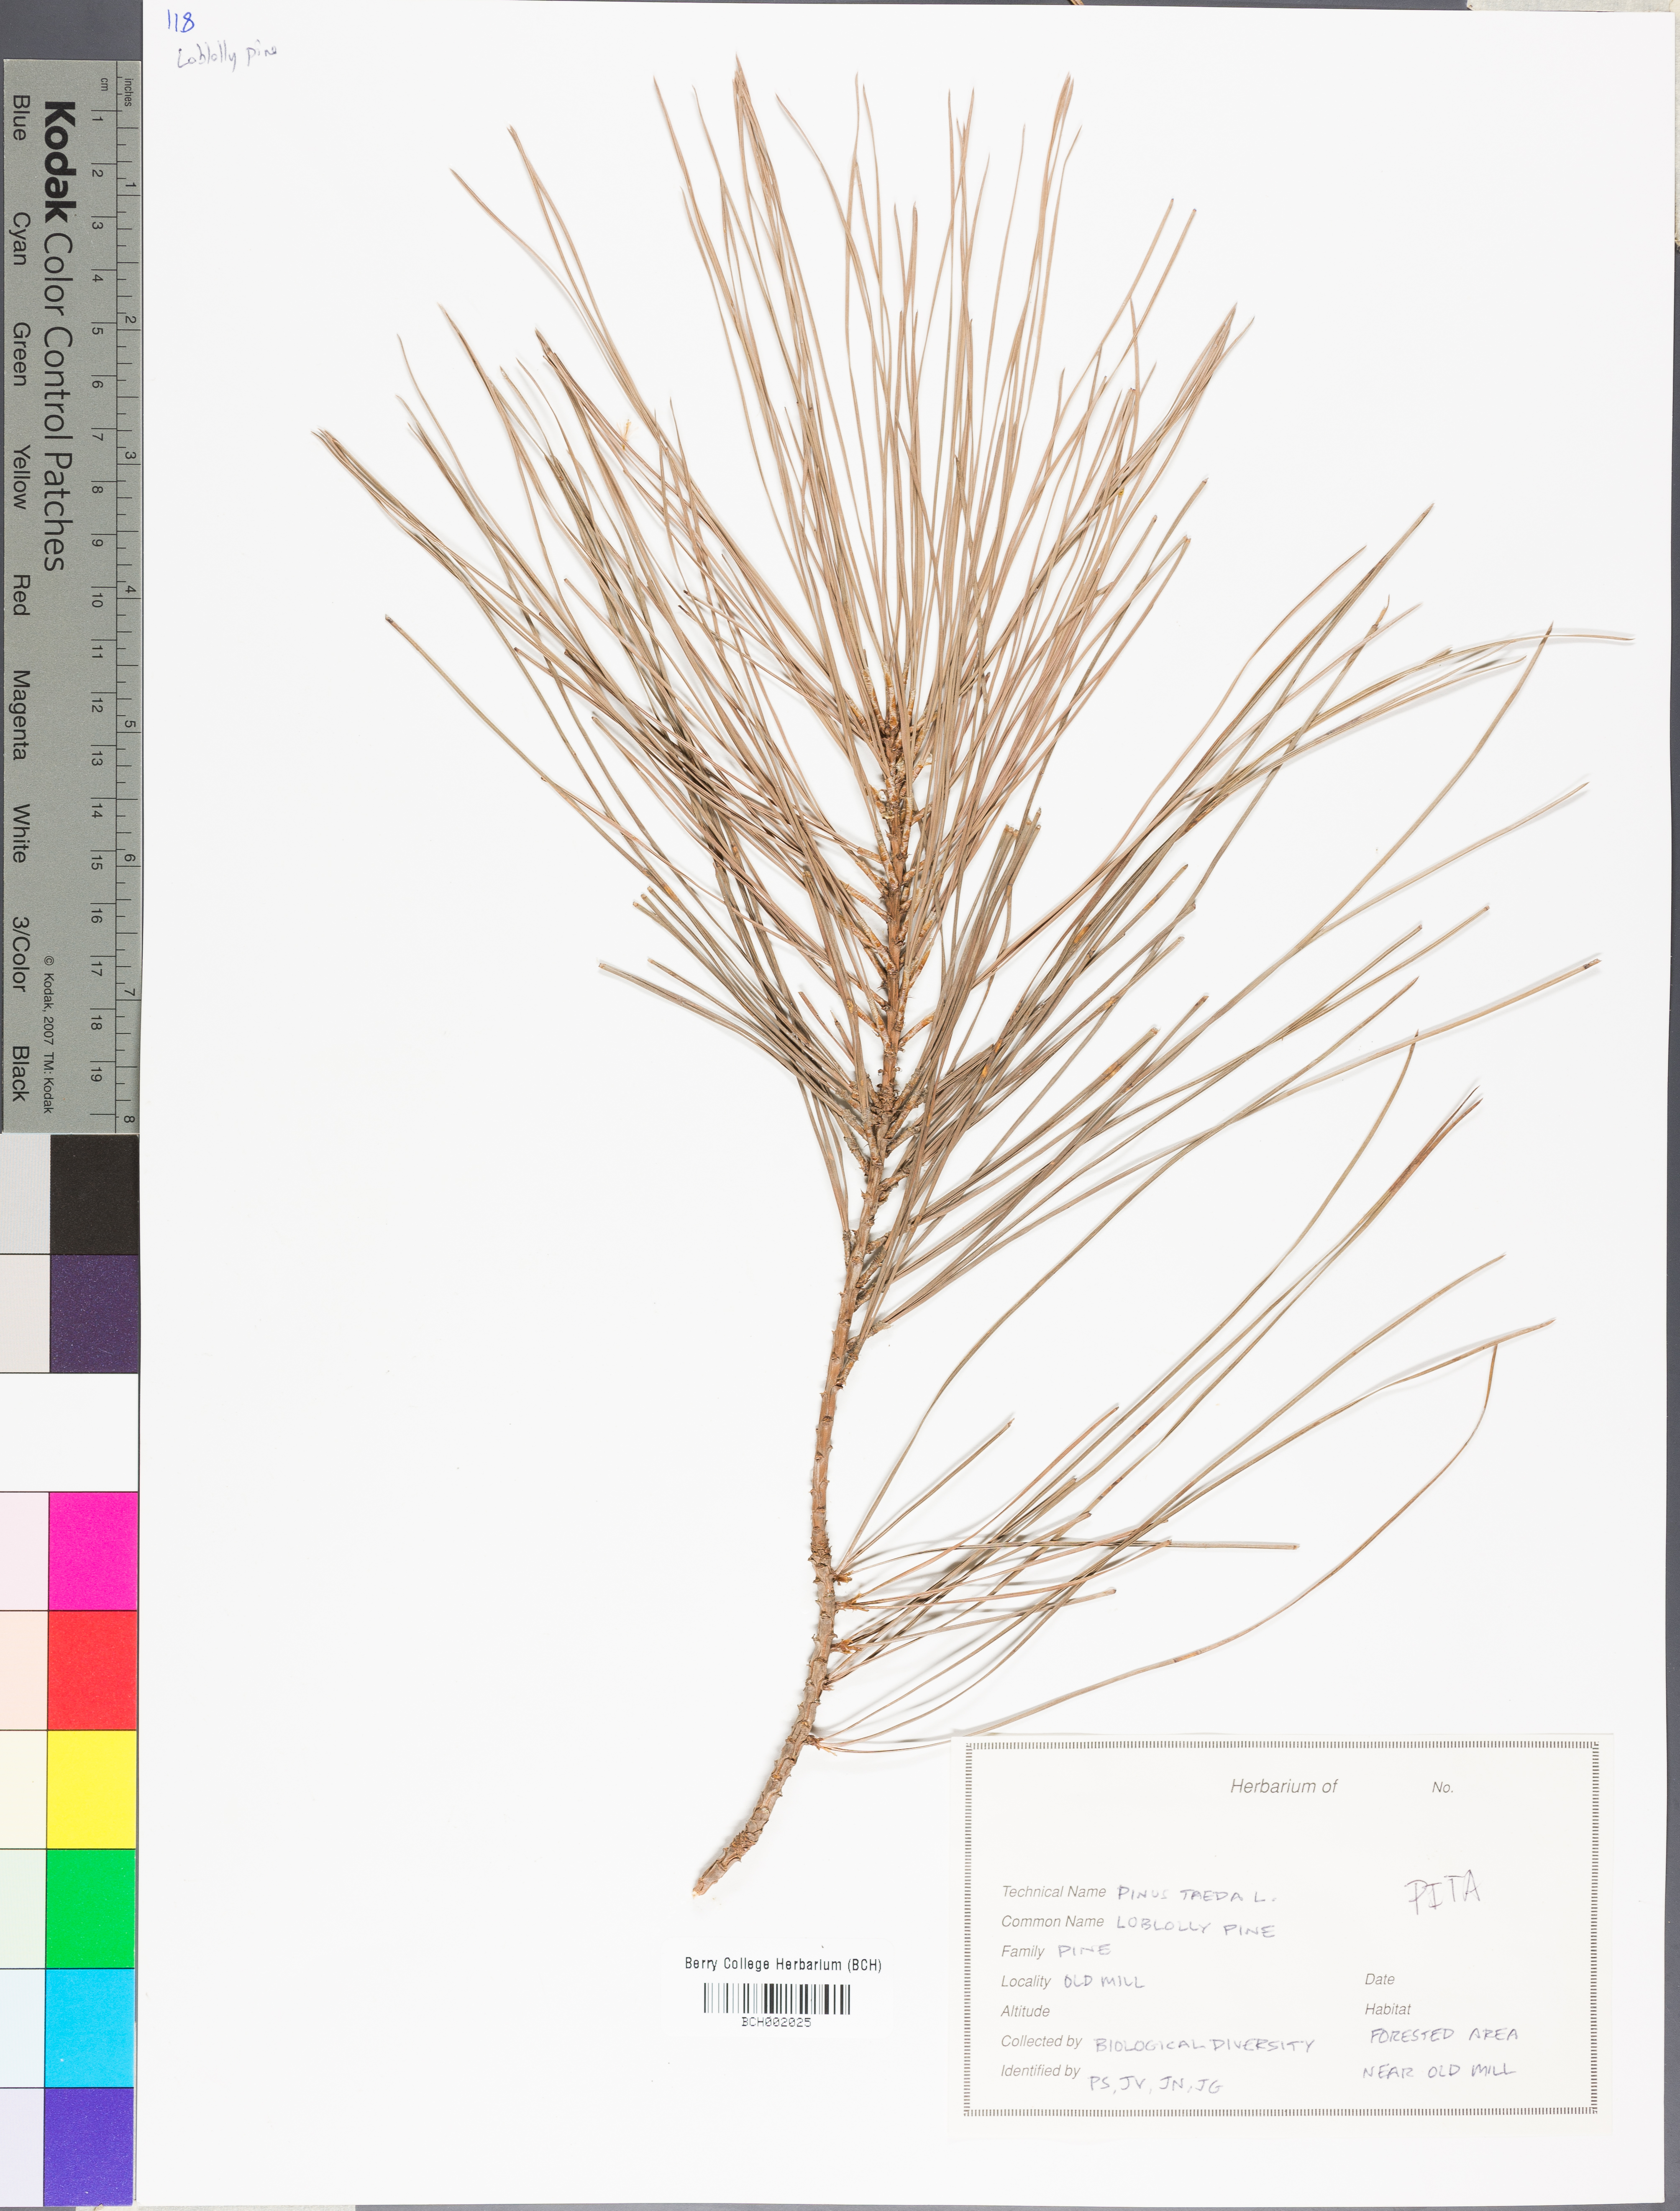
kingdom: Plantae
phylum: Tracheophyta
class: Pinopsida
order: Pinales
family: Pinaceae
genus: Pinus
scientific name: Pinus taeda
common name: Loblolly pine
